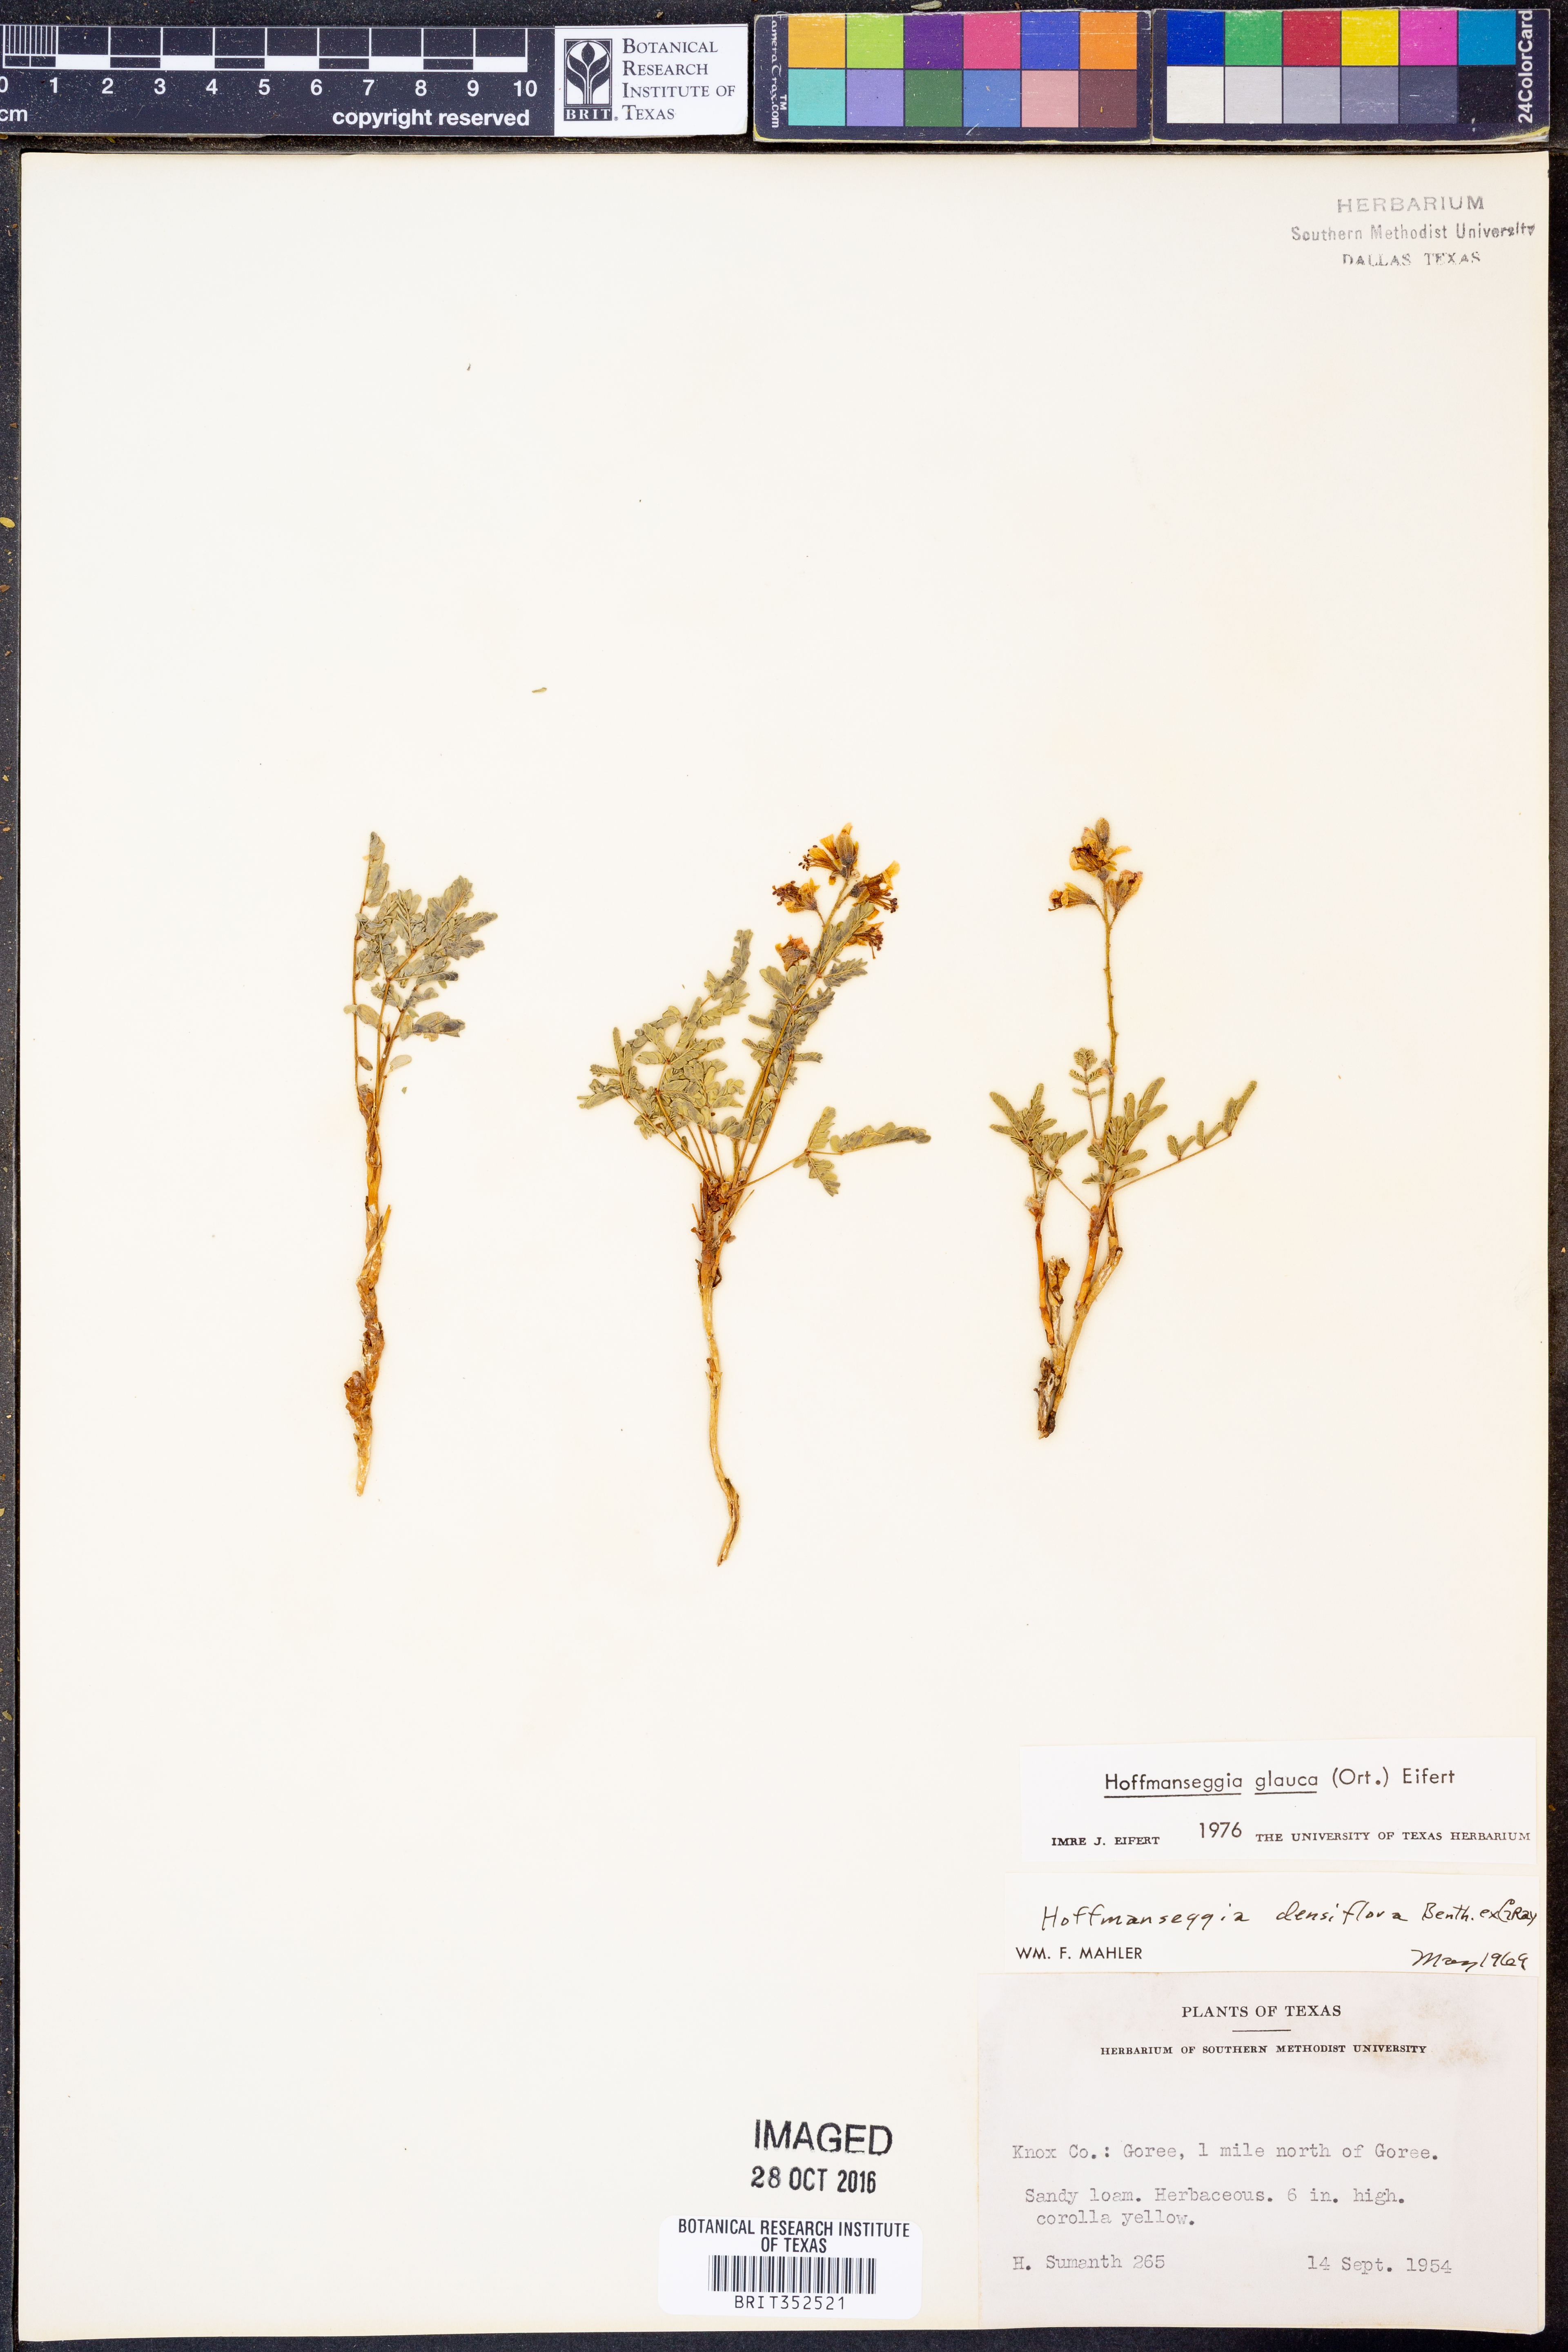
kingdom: Plantae
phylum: Tracheophyta
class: Magnoliopsida
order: Fabales
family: Fabaceae
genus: Hoffmannseggia
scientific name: Hoffmannseggia glauca
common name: Pignut
